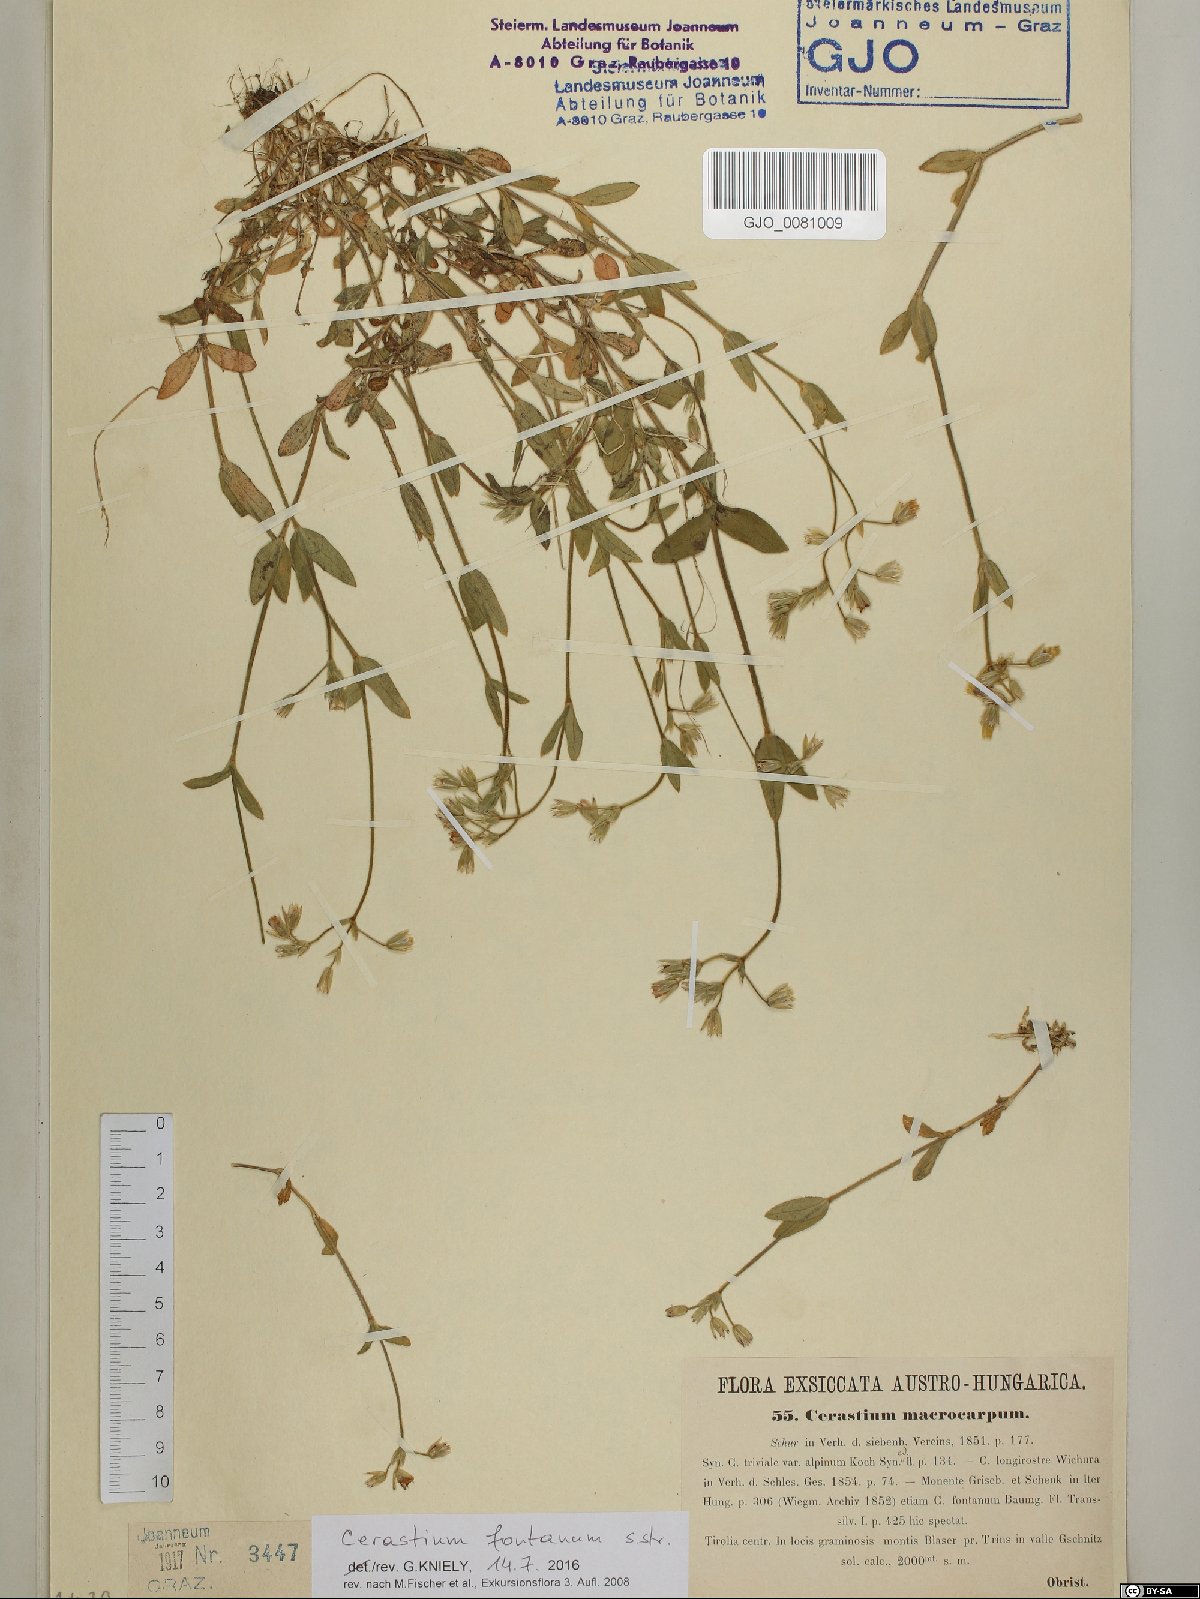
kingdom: Plantae
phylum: Tracheophyta
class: Magnoliopsida
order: Caryophyllales
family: Caryophyllaceae
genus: Cerastium
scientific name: Cerastium fontanum
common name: Common mouse-ear
